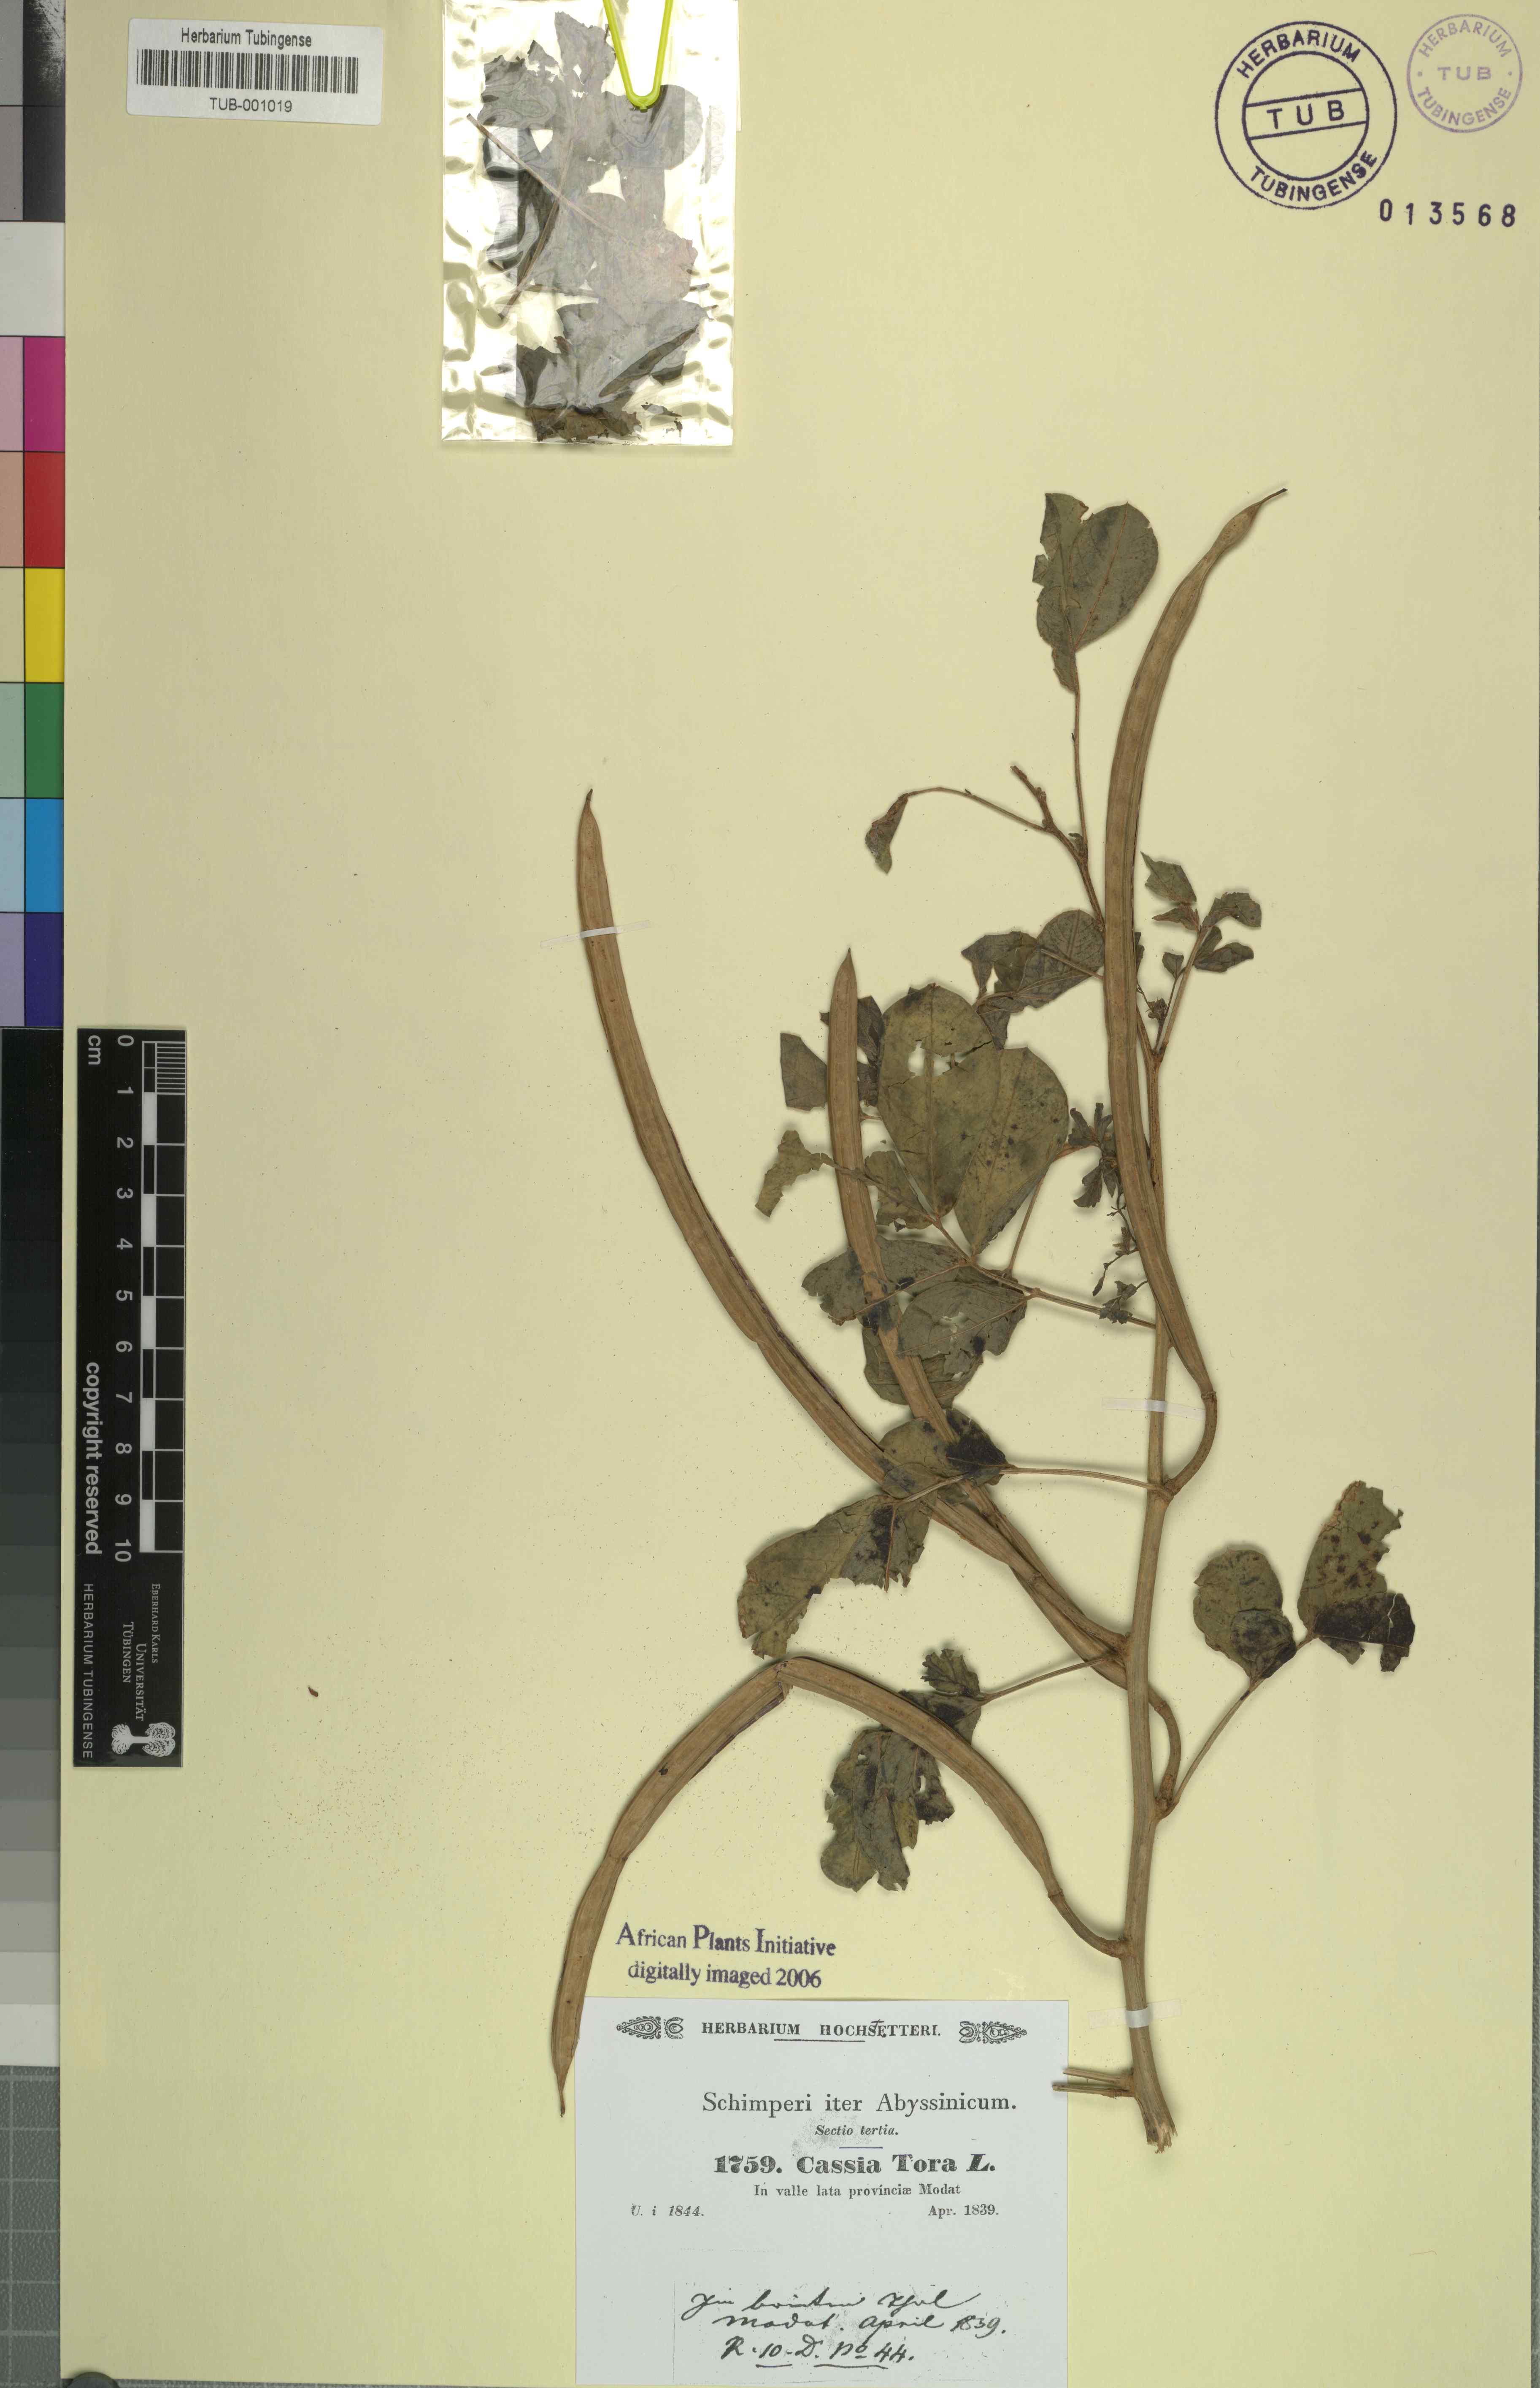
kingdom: Plantae
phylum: Tracheophyta
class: Magnoliopsida
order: Fabales
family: Fabaceae
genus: Senna
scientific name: Senna tora
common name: Sickle senna
